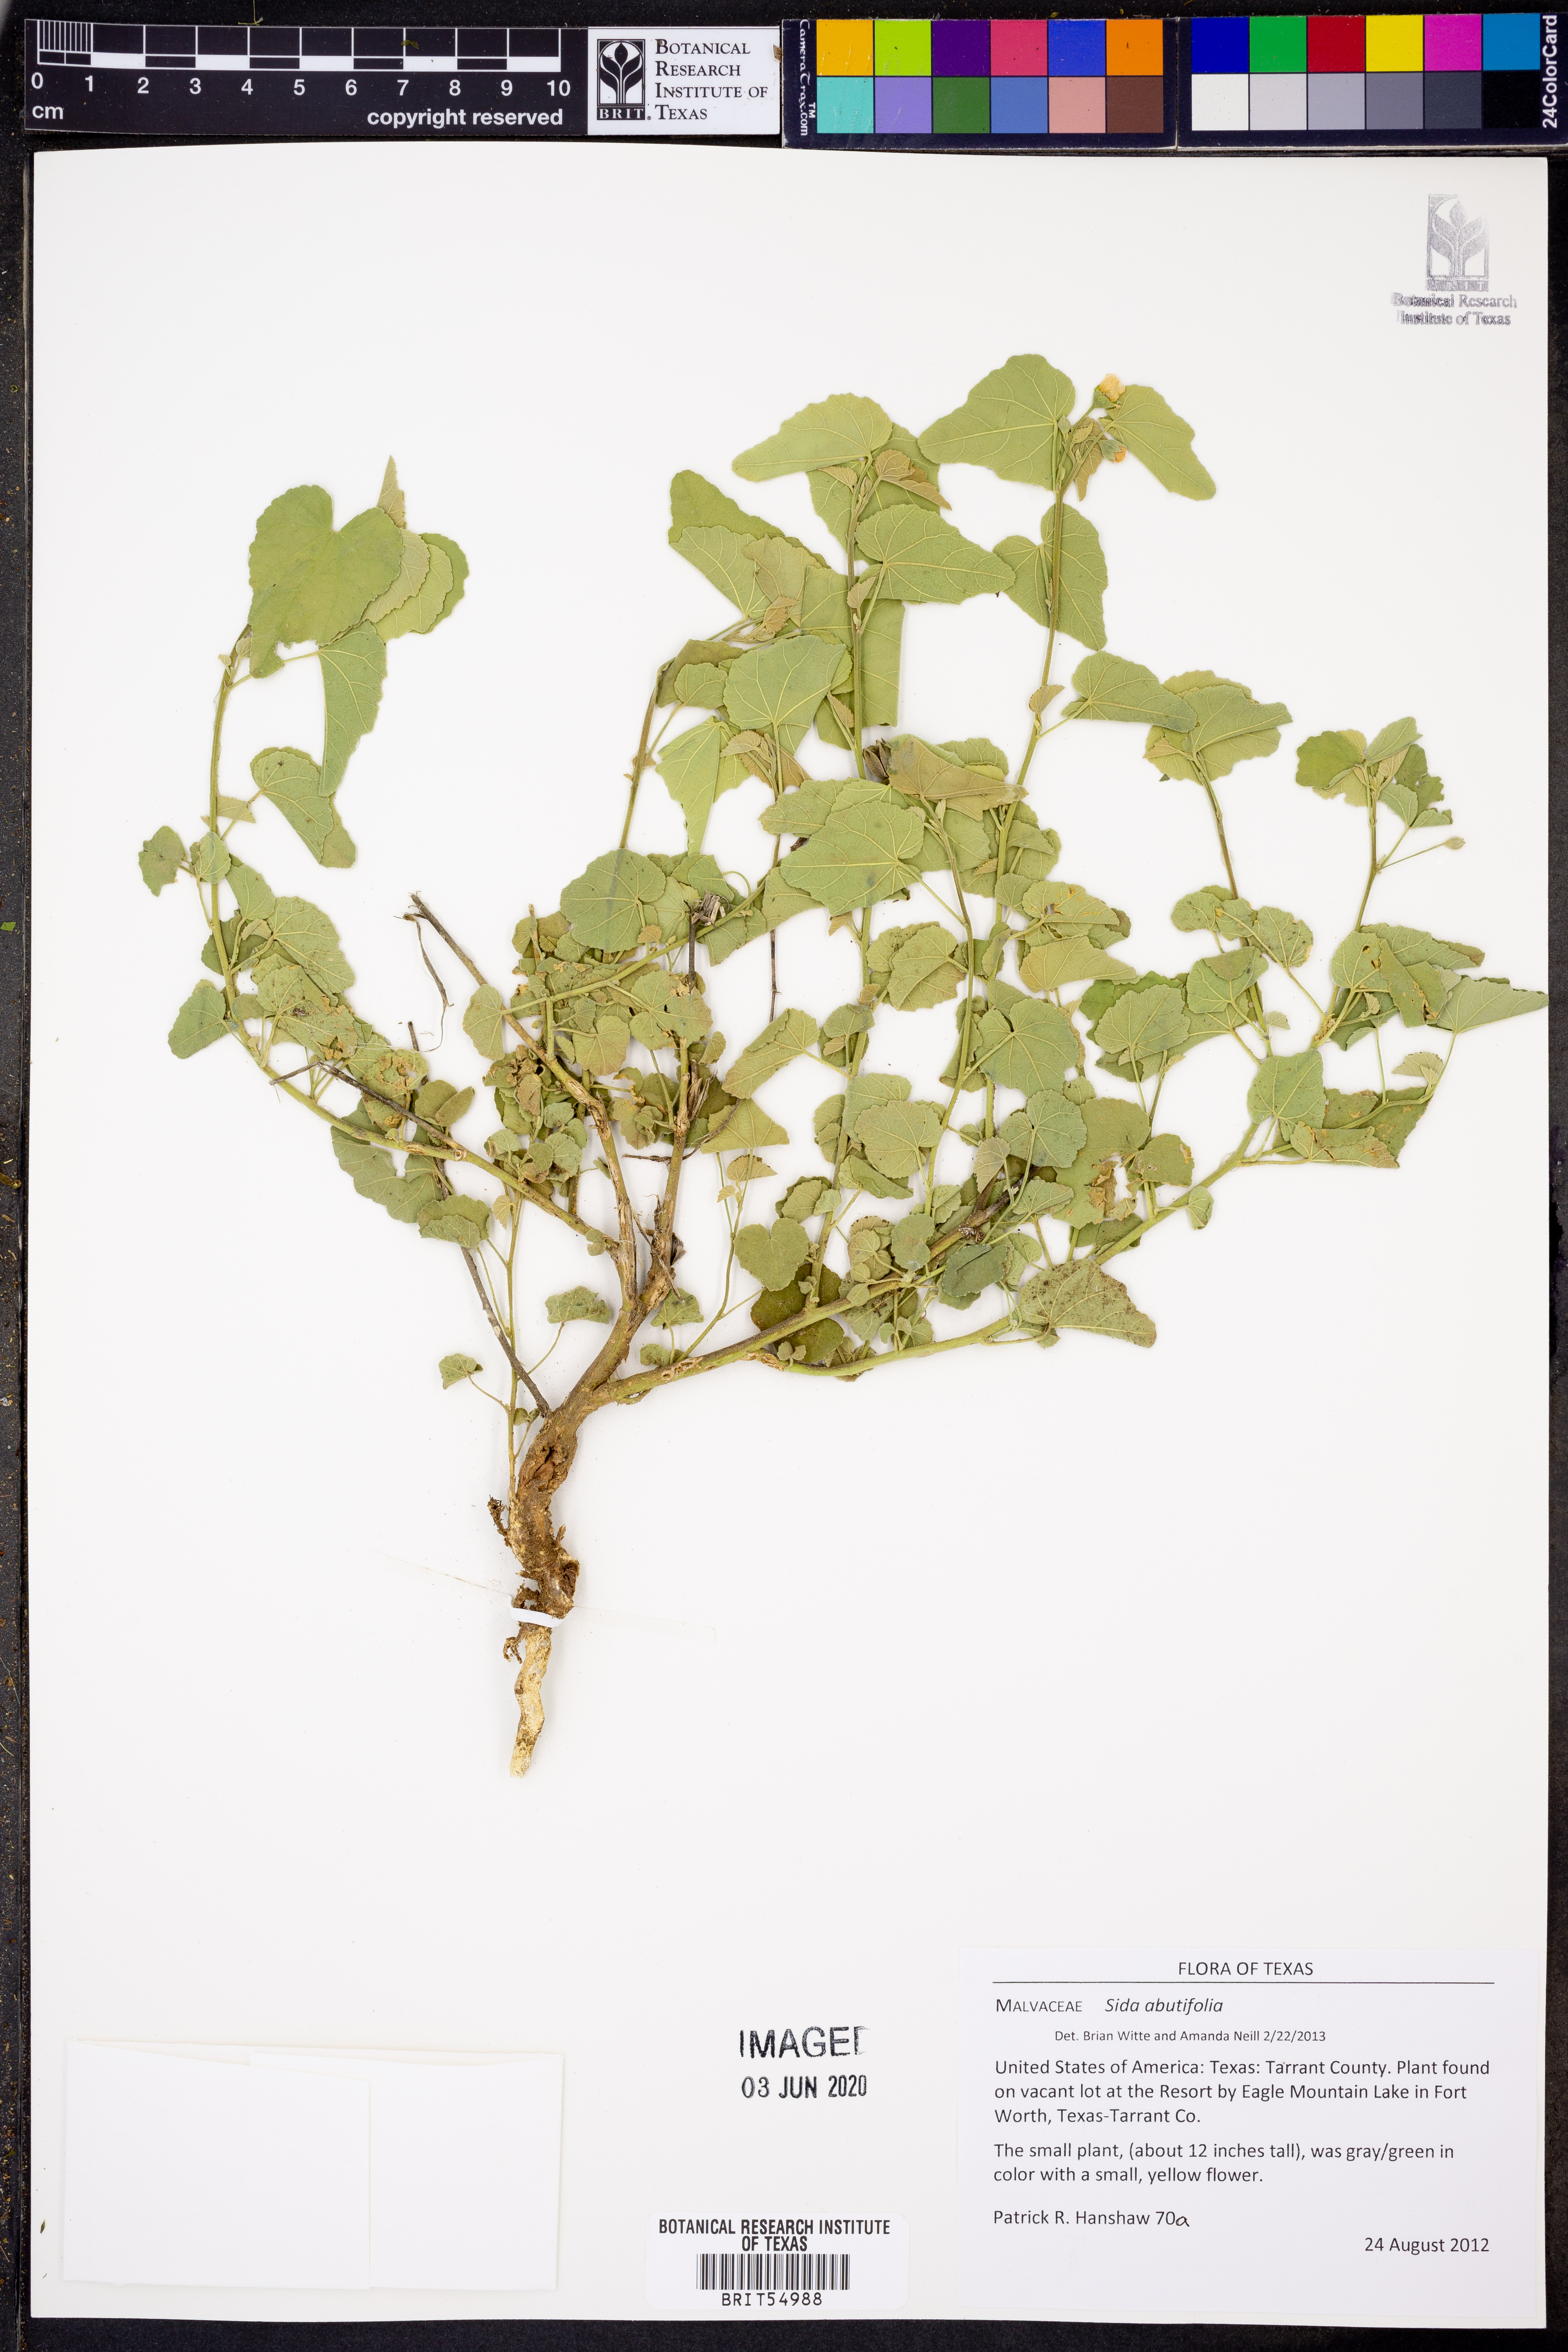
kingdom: Plantae
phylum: Tracheophyta
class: Magnoliopsida
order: Malvales
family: Malvaceae
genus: Sida
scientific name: Sida abutifolia
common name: Spreading fantails
